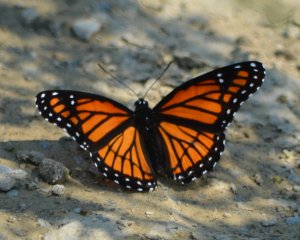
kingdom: Animalia
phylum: Arthropoda
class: Insecta
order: Lepidoptera
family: Nymphalidae
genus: Limenitis
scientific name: Limenitis archippus
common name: Viceroy
